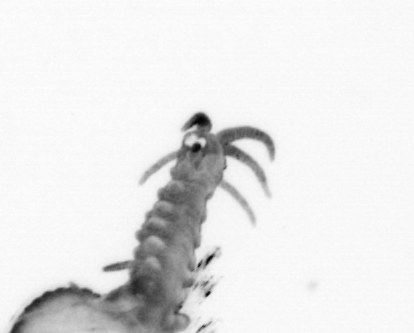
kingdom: Animalia
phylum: Annelida
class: Polychaeta
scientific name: Polychaeta
